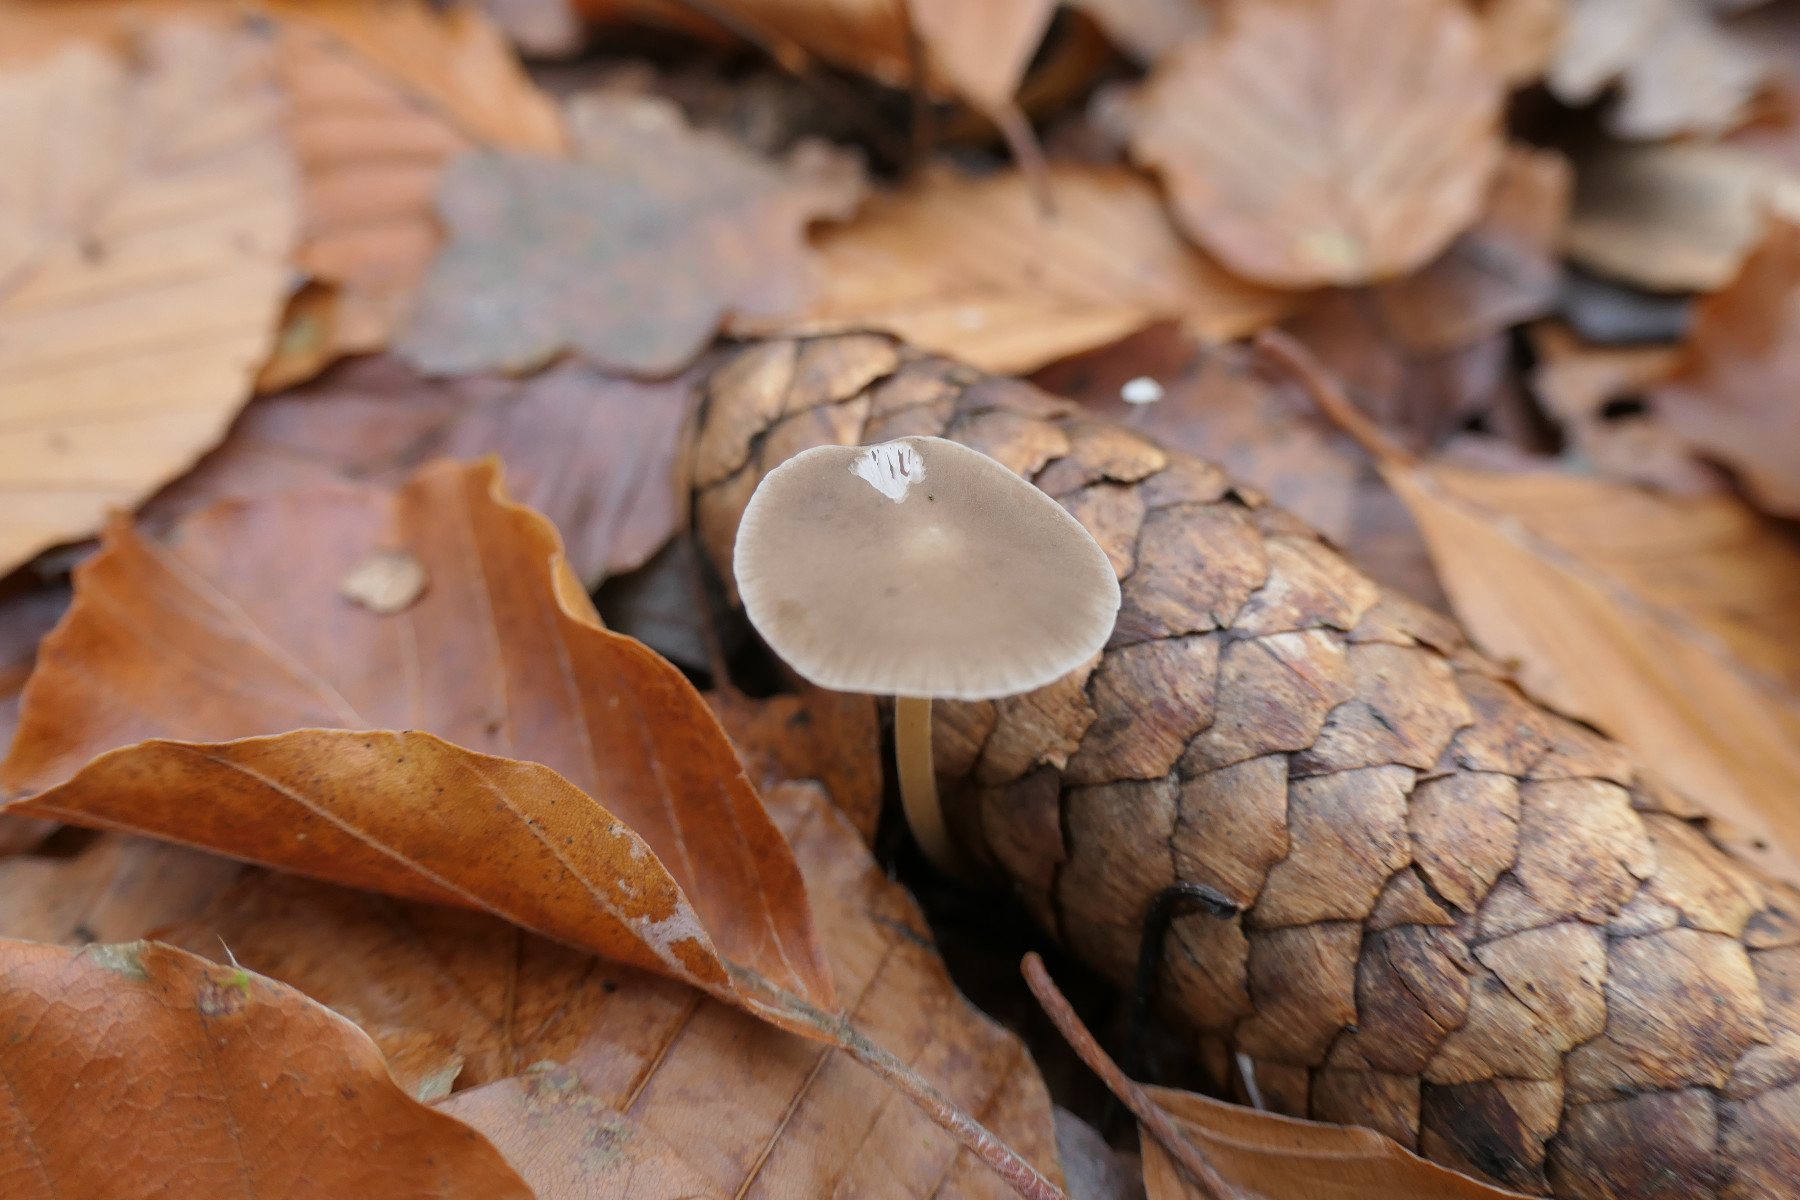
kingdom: Fungi
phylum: Basidiomycota
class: Agaricomycetes
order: Agaricales
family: Physalacriaceae
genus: Strobilurus
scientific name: Strobilurus esculentus
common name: gran-koglehat
